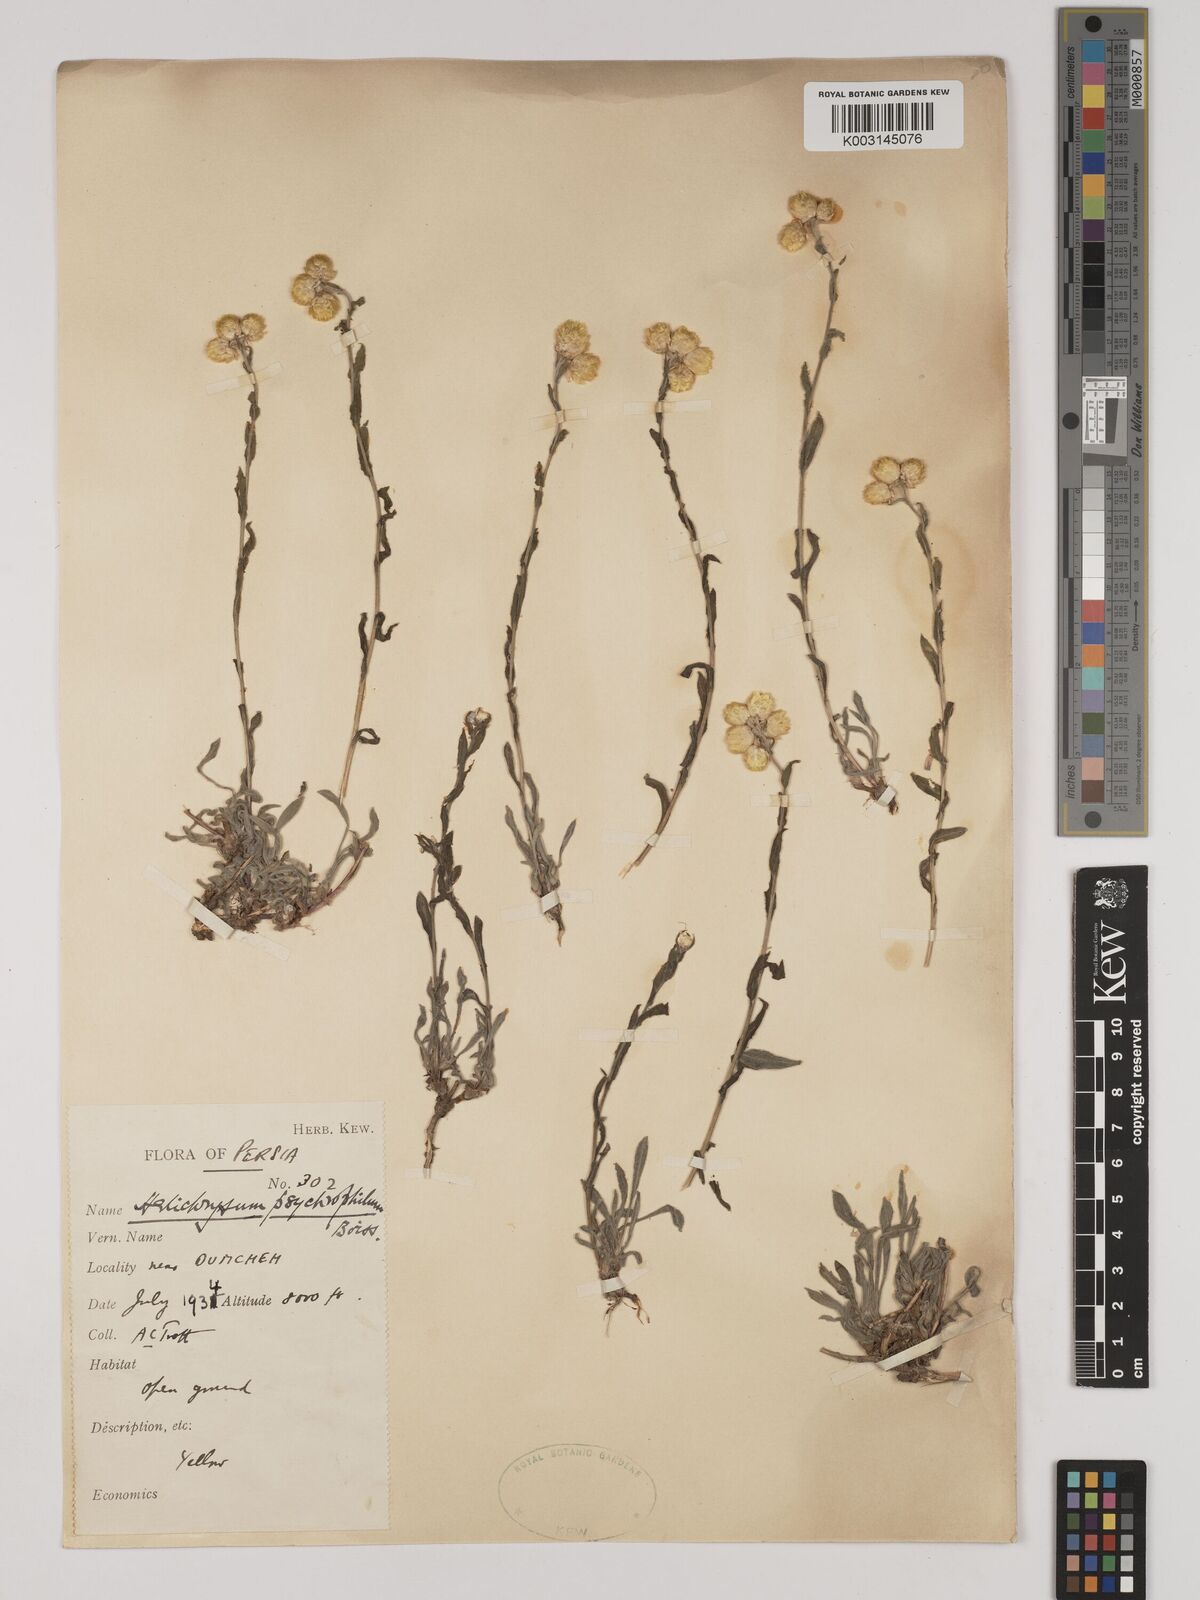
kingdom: Plantae
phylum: Tracheophyta
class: Magnoliopsida
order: Asterales
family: Asteraceae
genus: Helichrysum
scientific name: Helichrysum pallasii
